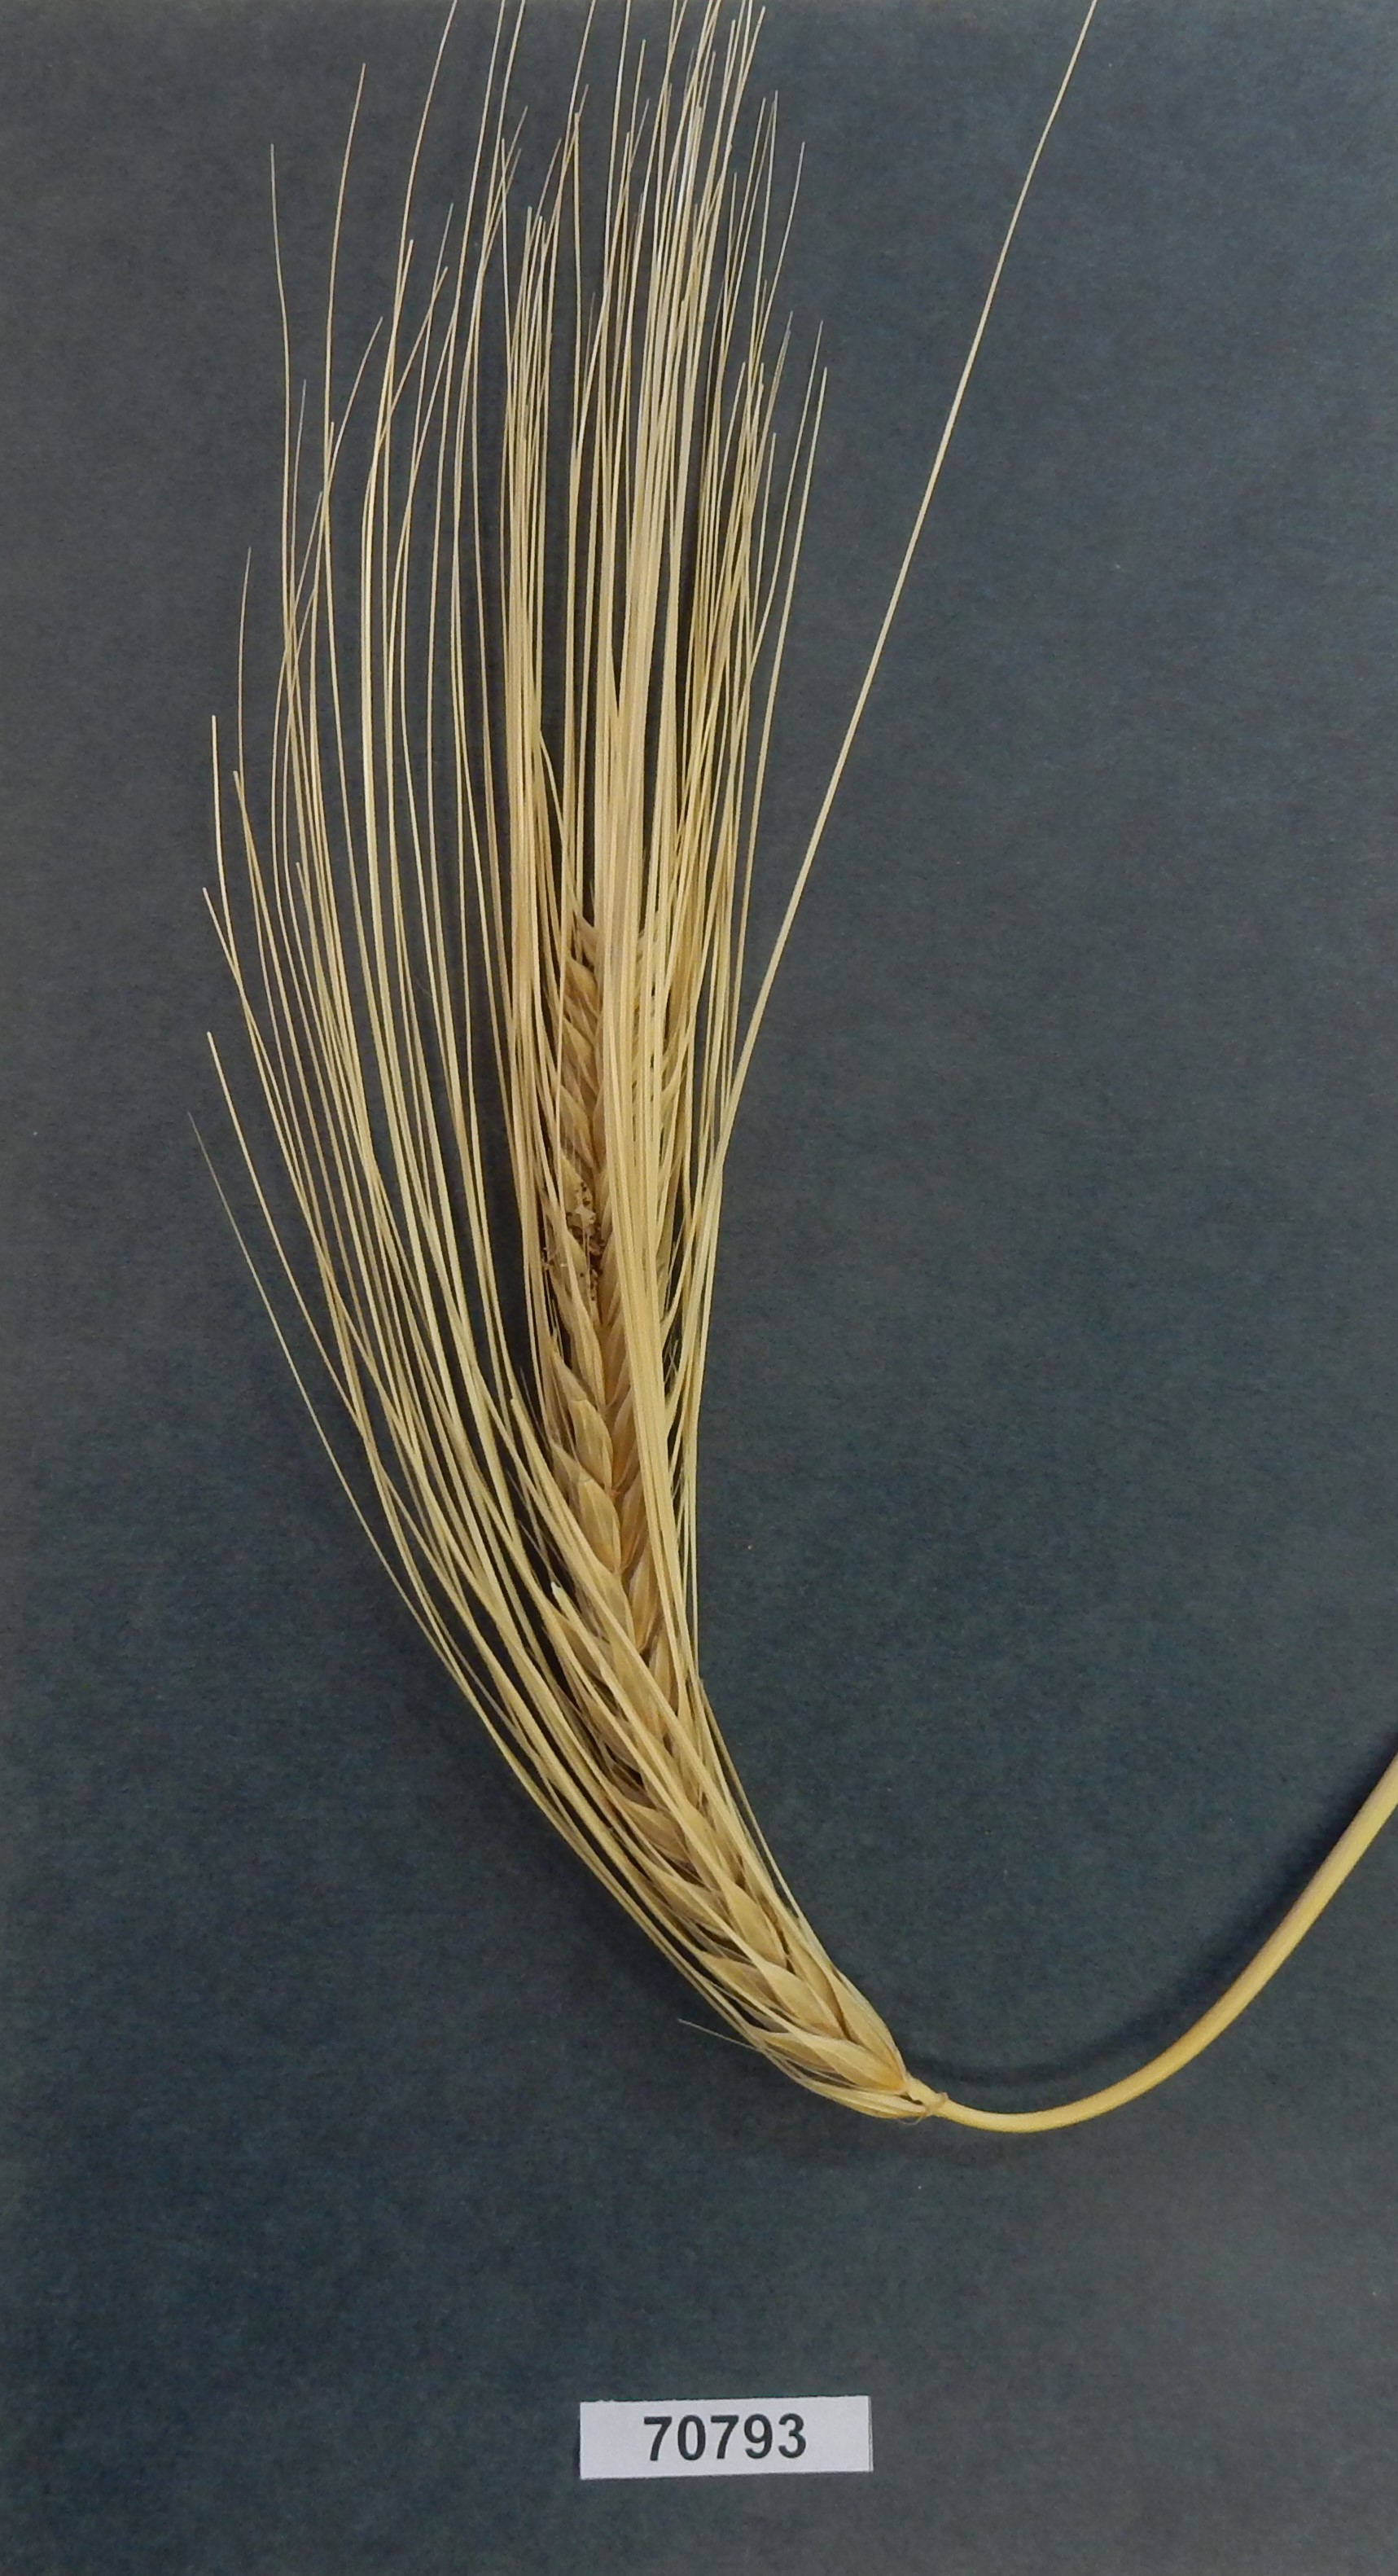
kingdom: Plantae
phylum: Tracheophyta
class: Liliopsida
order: Poales
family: Poaceae
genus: Hordeum
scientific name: Hordeum vulgare
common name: Barley
